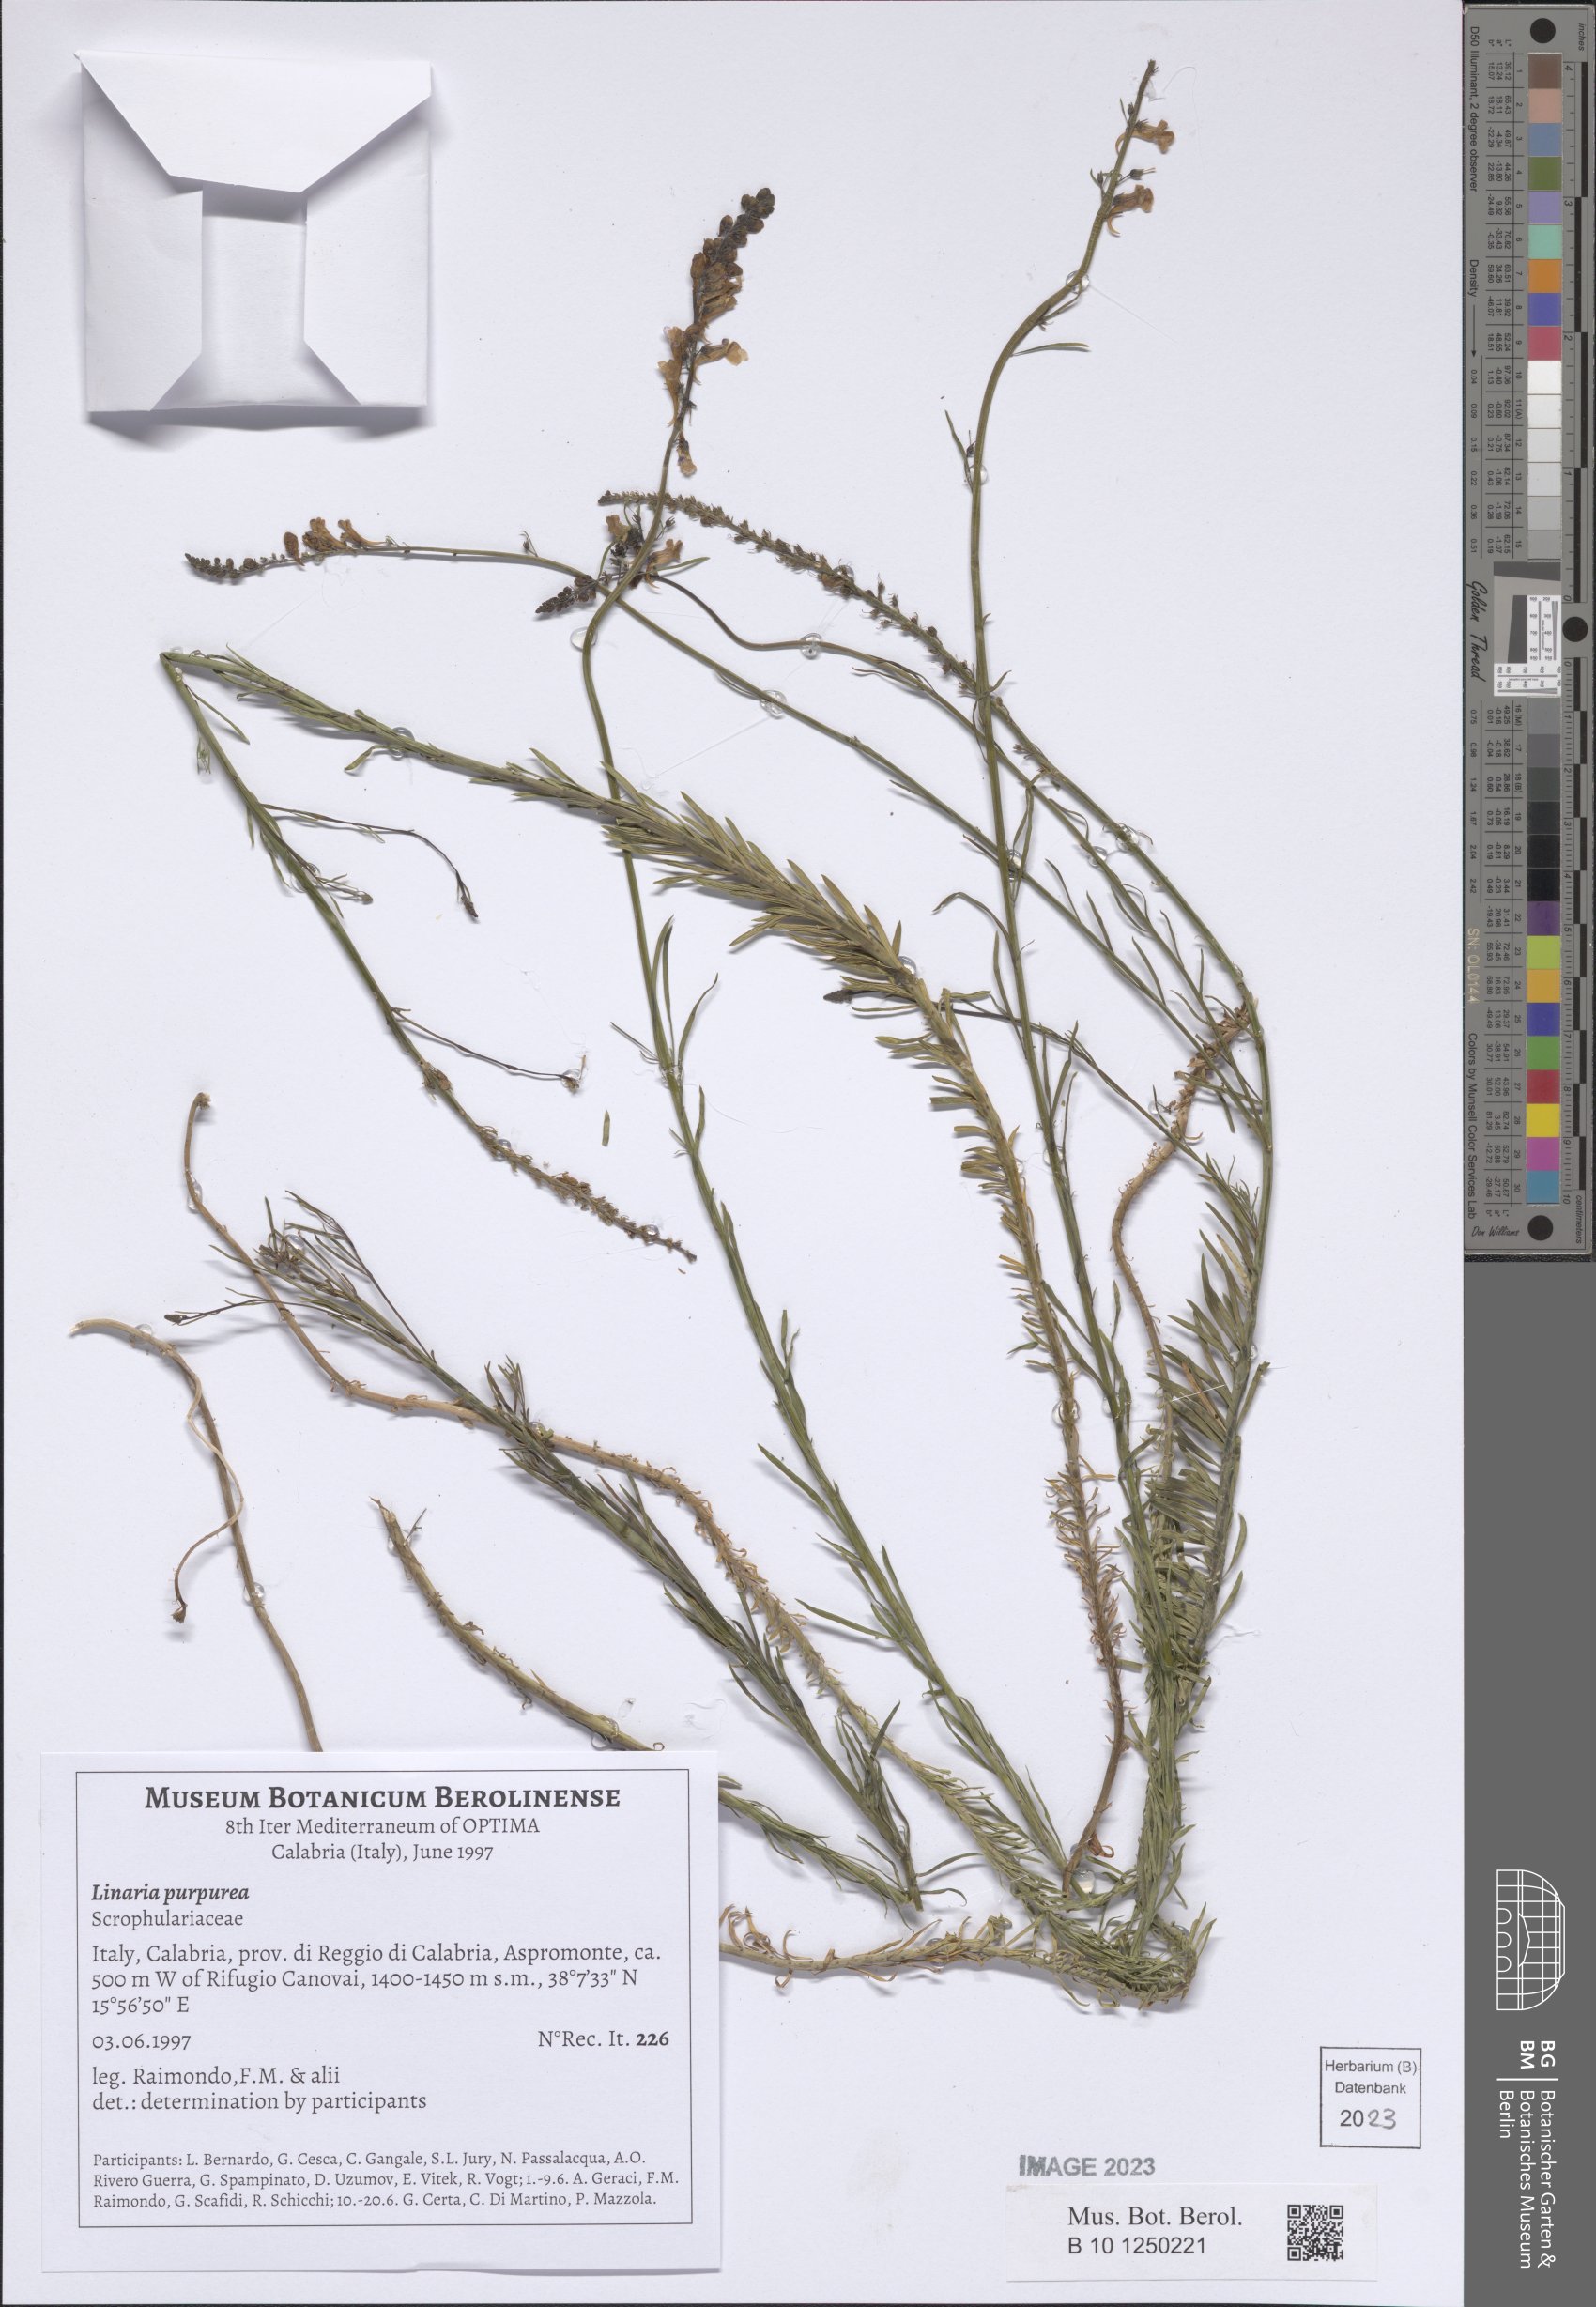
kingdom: Plantae
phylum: Tracheophyta
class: Magnoliopsida
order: Lamiales
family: Plantaginaceae
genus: Linaria
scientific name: Linaria purpurea
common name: Purple toadflax
